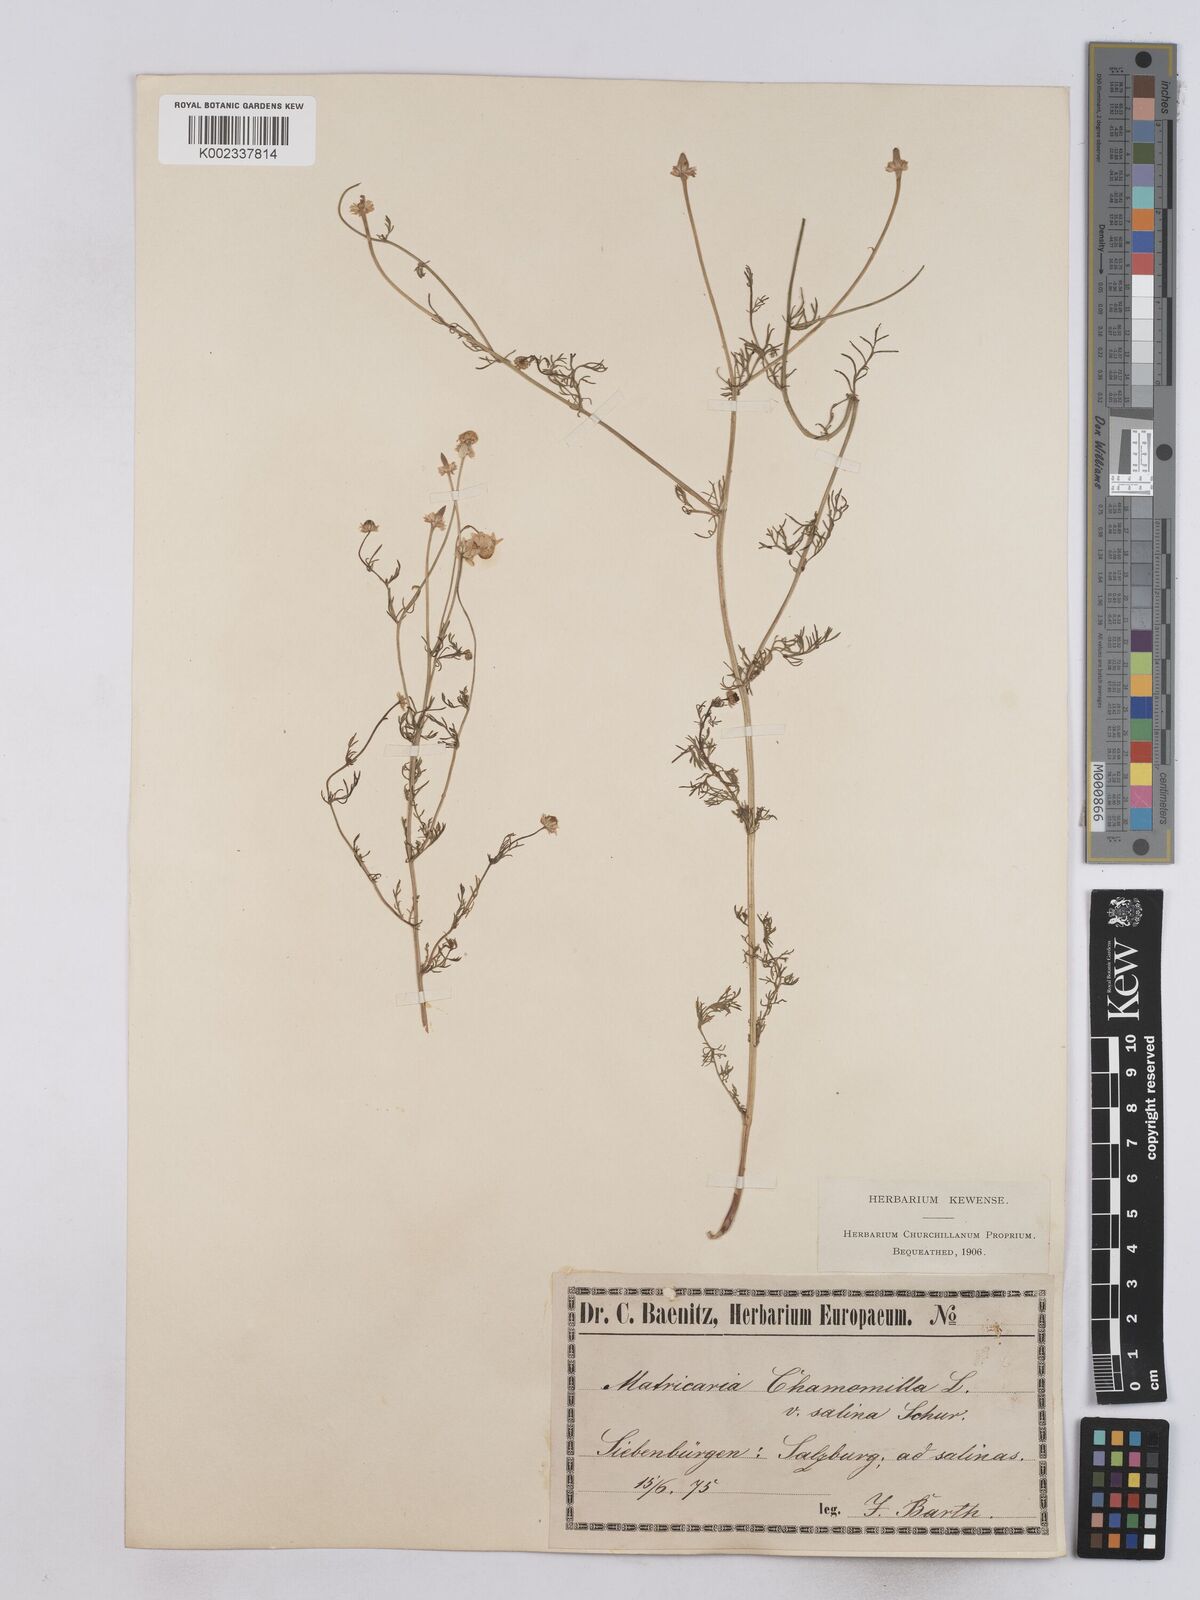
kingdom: Plantae
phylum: Tracheophyta
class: Magnoliopsida
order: Asterales
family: Asteraceae
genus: Matricaria
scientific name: Matricaria chamomilla
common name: Scented mayweed
